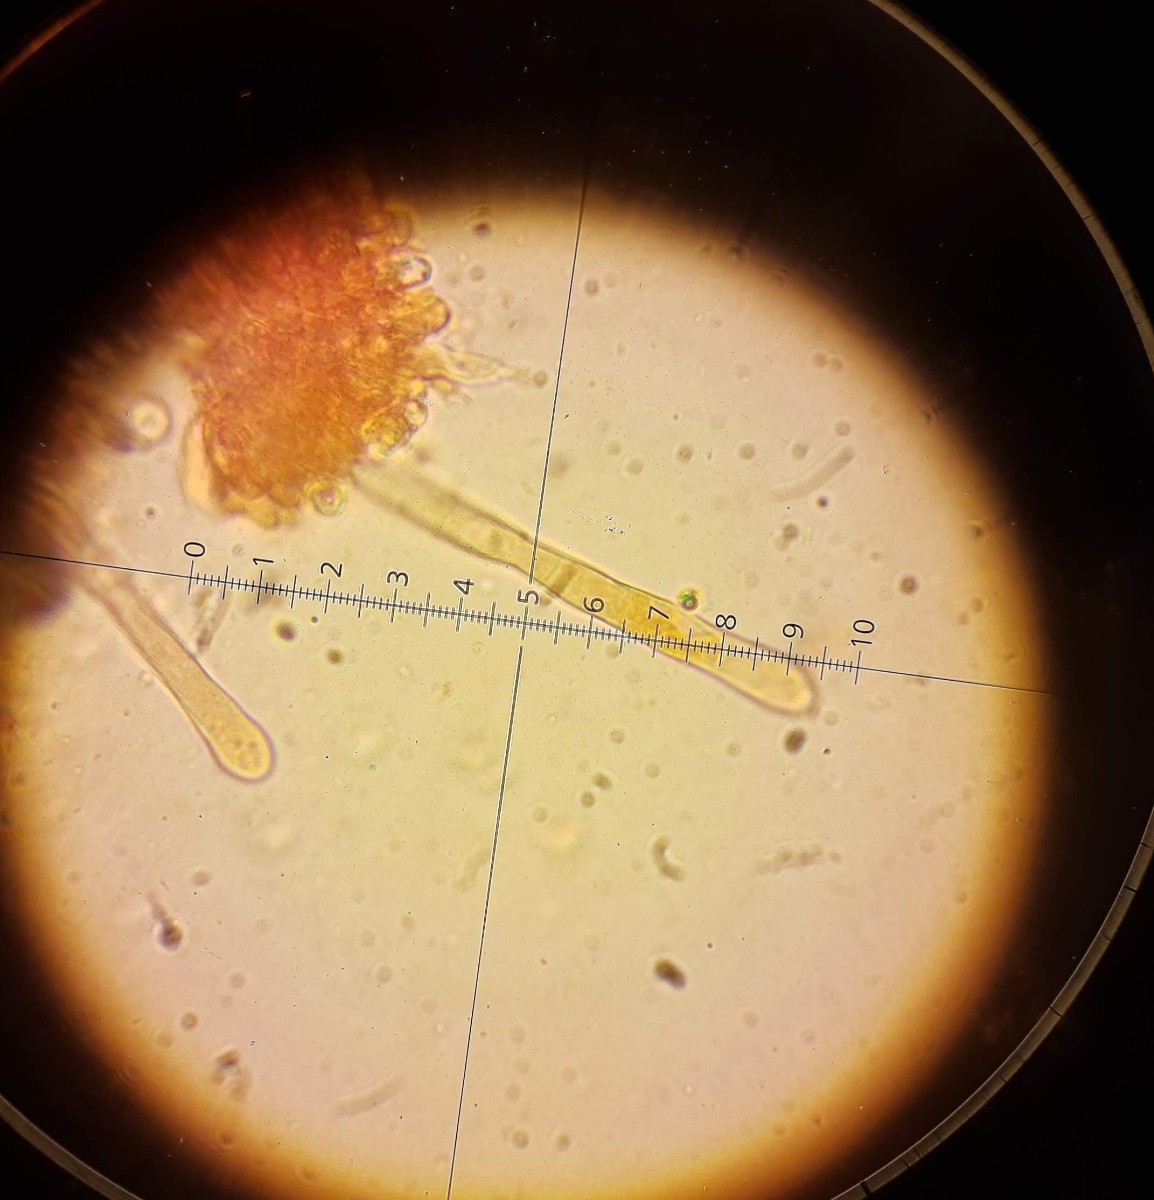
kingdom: Fungi
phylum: Basidiomycota
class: Agaricomycetes
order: Corticiales
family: Corticiaceae
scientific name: Corticiaceae
